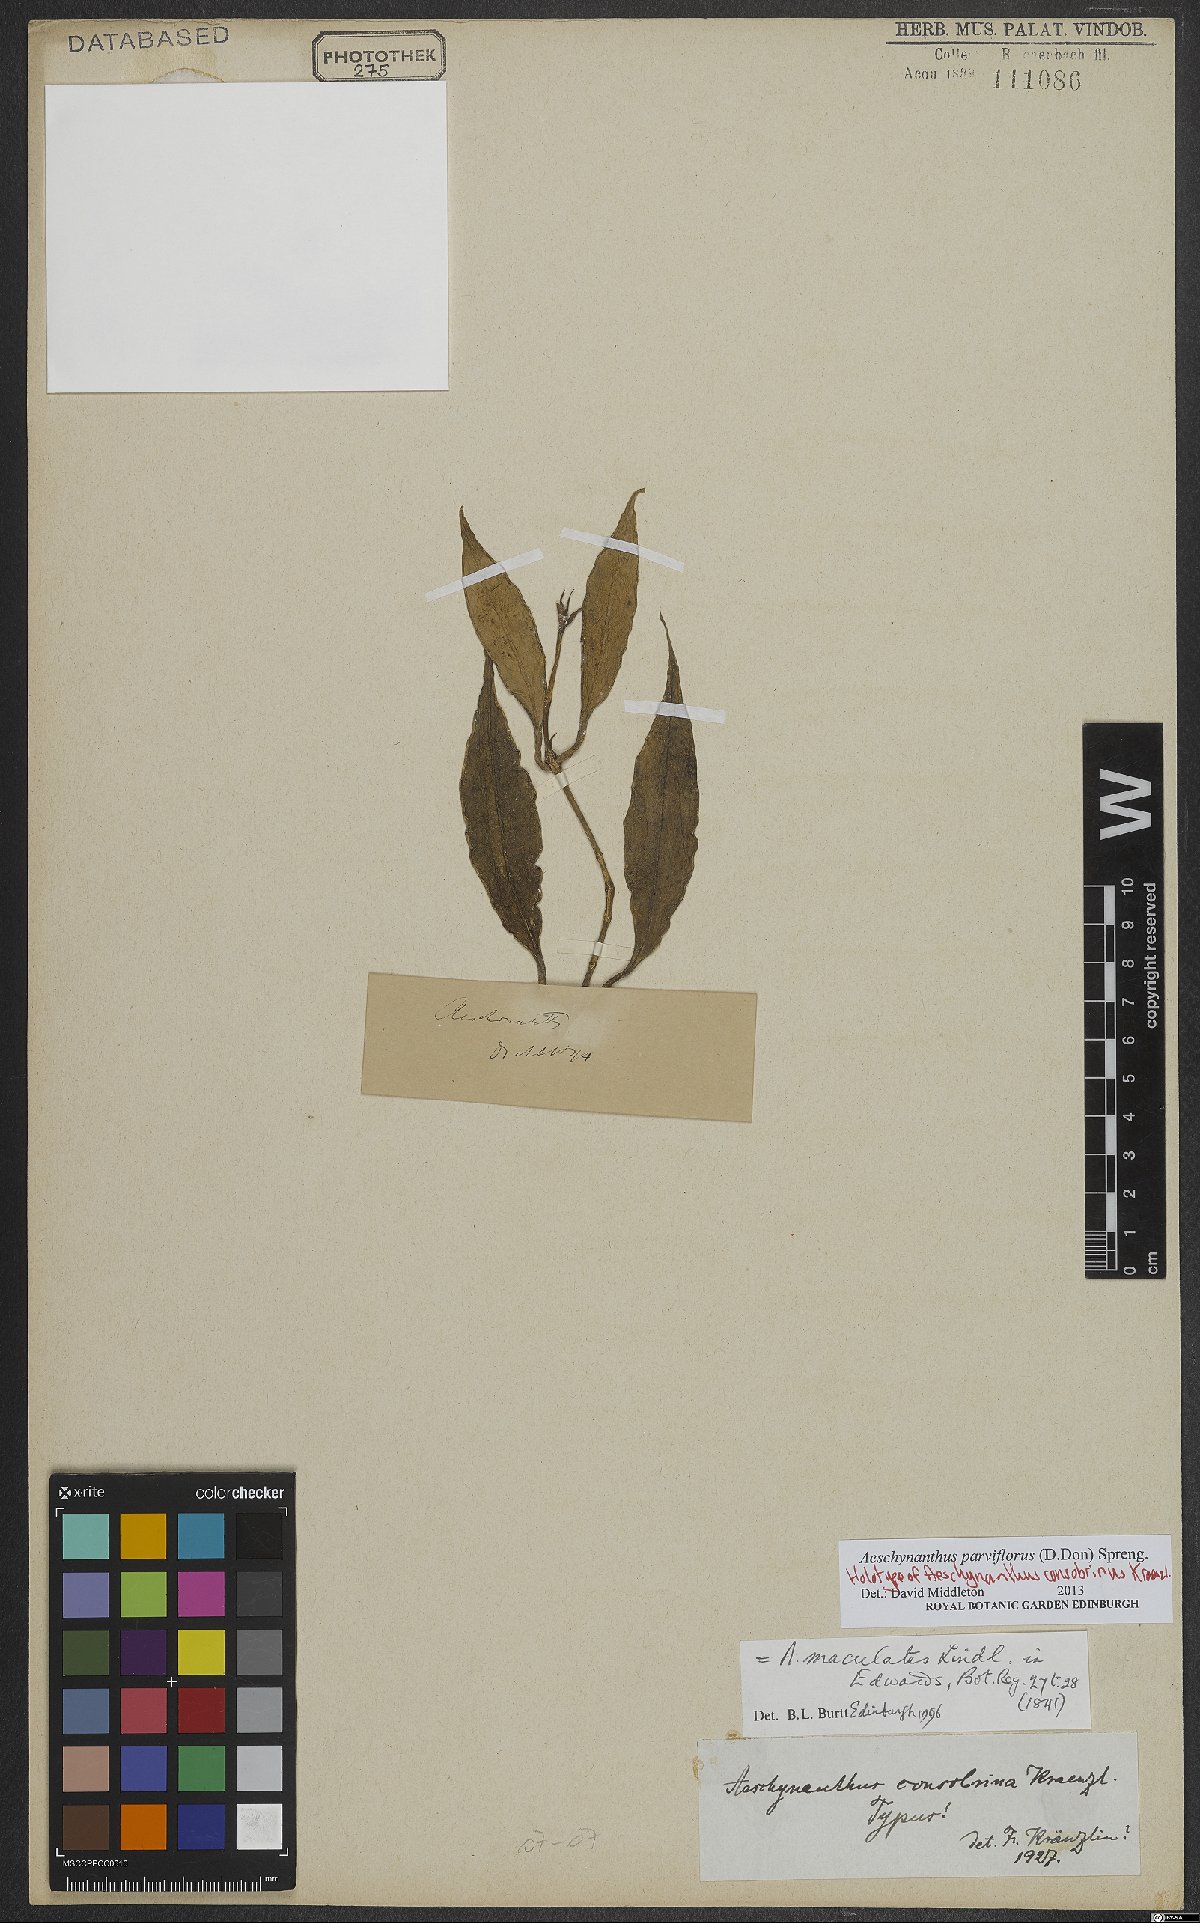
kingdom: Plantae
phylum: Tracheophyta
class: Magnoliopsida
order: Lamiales
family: Gesneriaceae
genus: Aeschynanthus
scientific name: Aeschynanthus parviflorus
